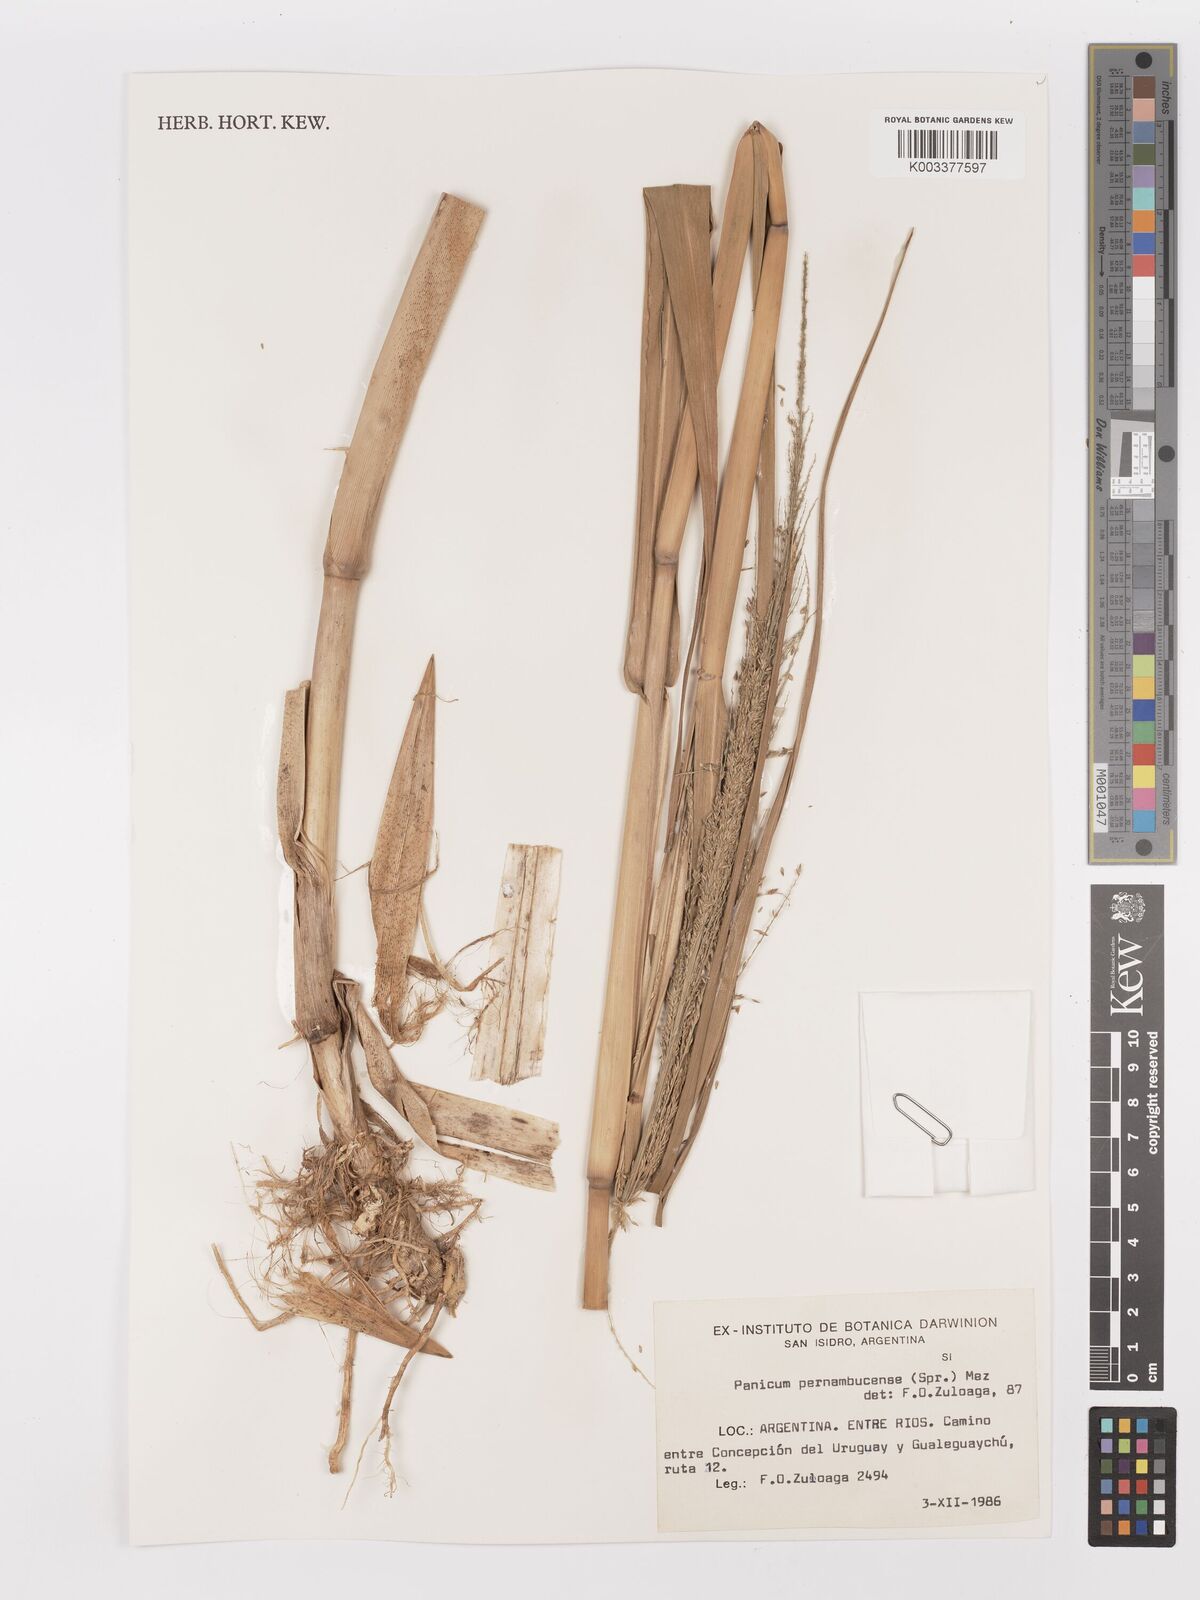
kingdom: Plantae
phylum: Tracheophyta
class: Liliopsida
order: Poales
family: Poaceae
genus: Hymenachne
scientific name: Hymenachne pernambucensis
